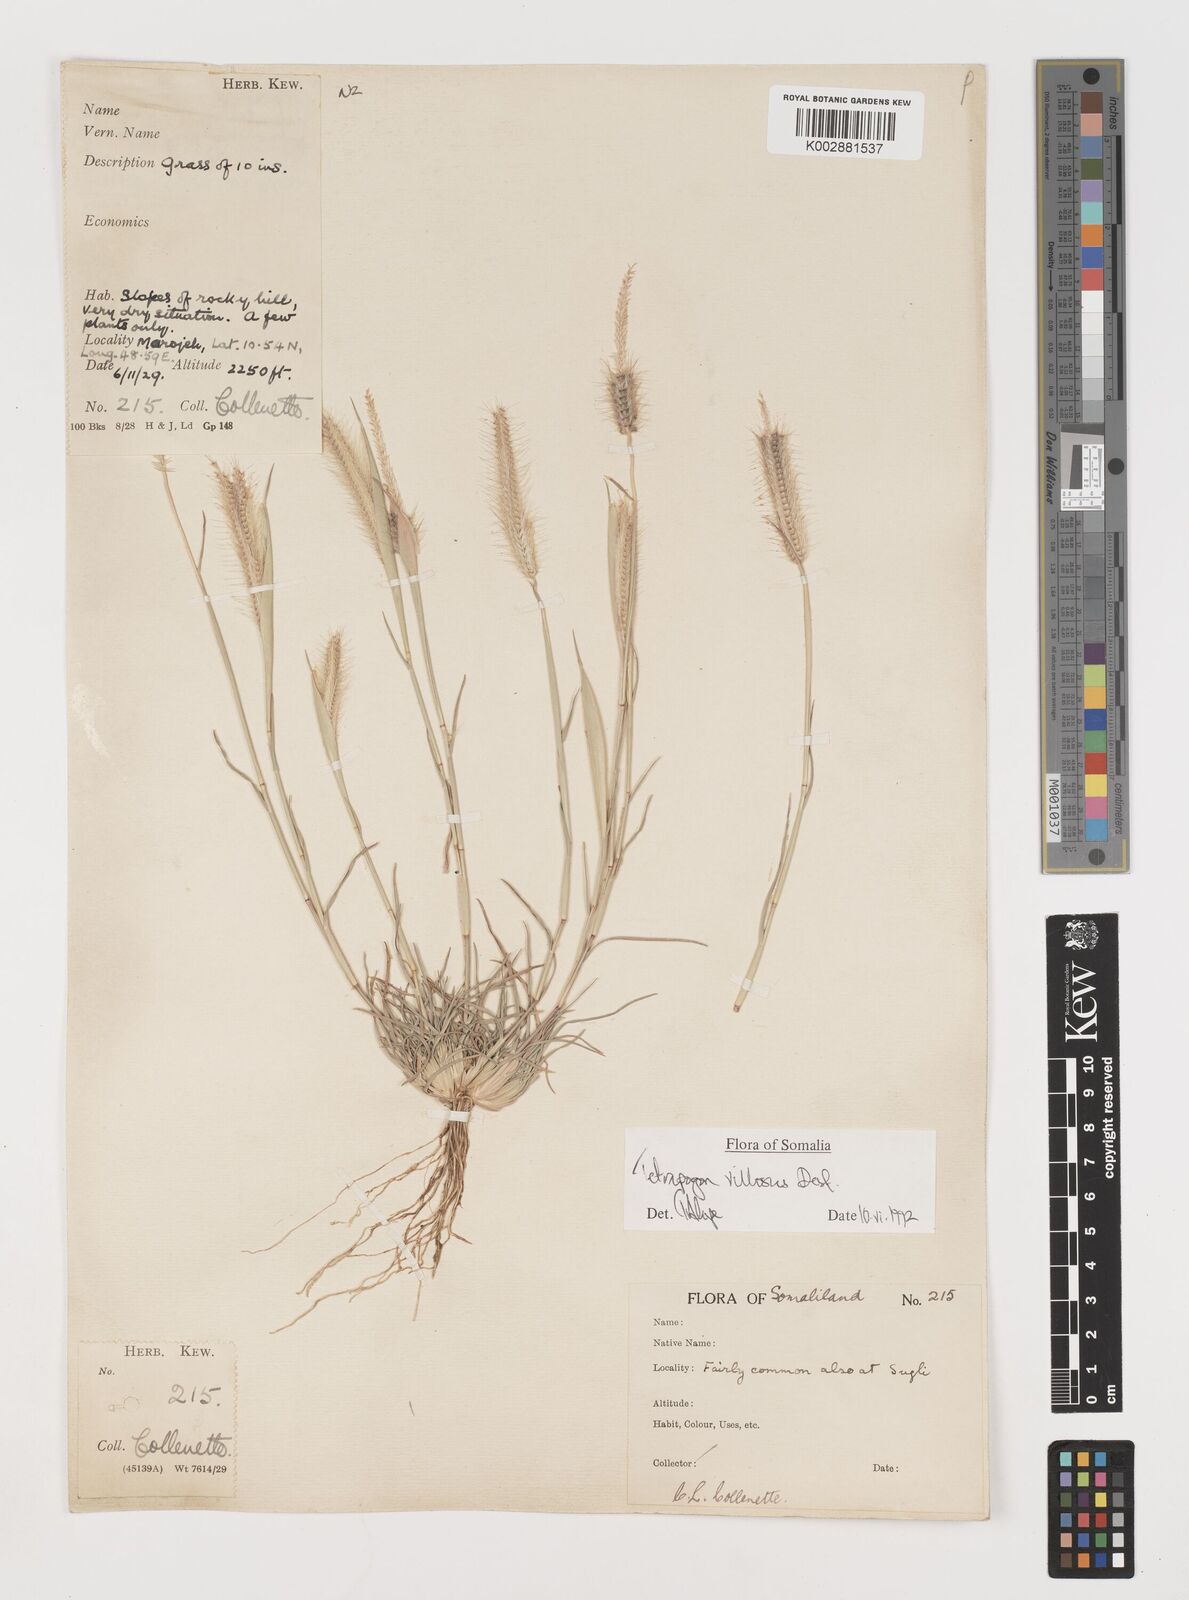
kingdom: Plantae
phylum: Tracheophyta
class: Liliopsida
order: Poales
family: Poaceae
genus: Tetrapogon
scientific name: Tetrapogon villosus
